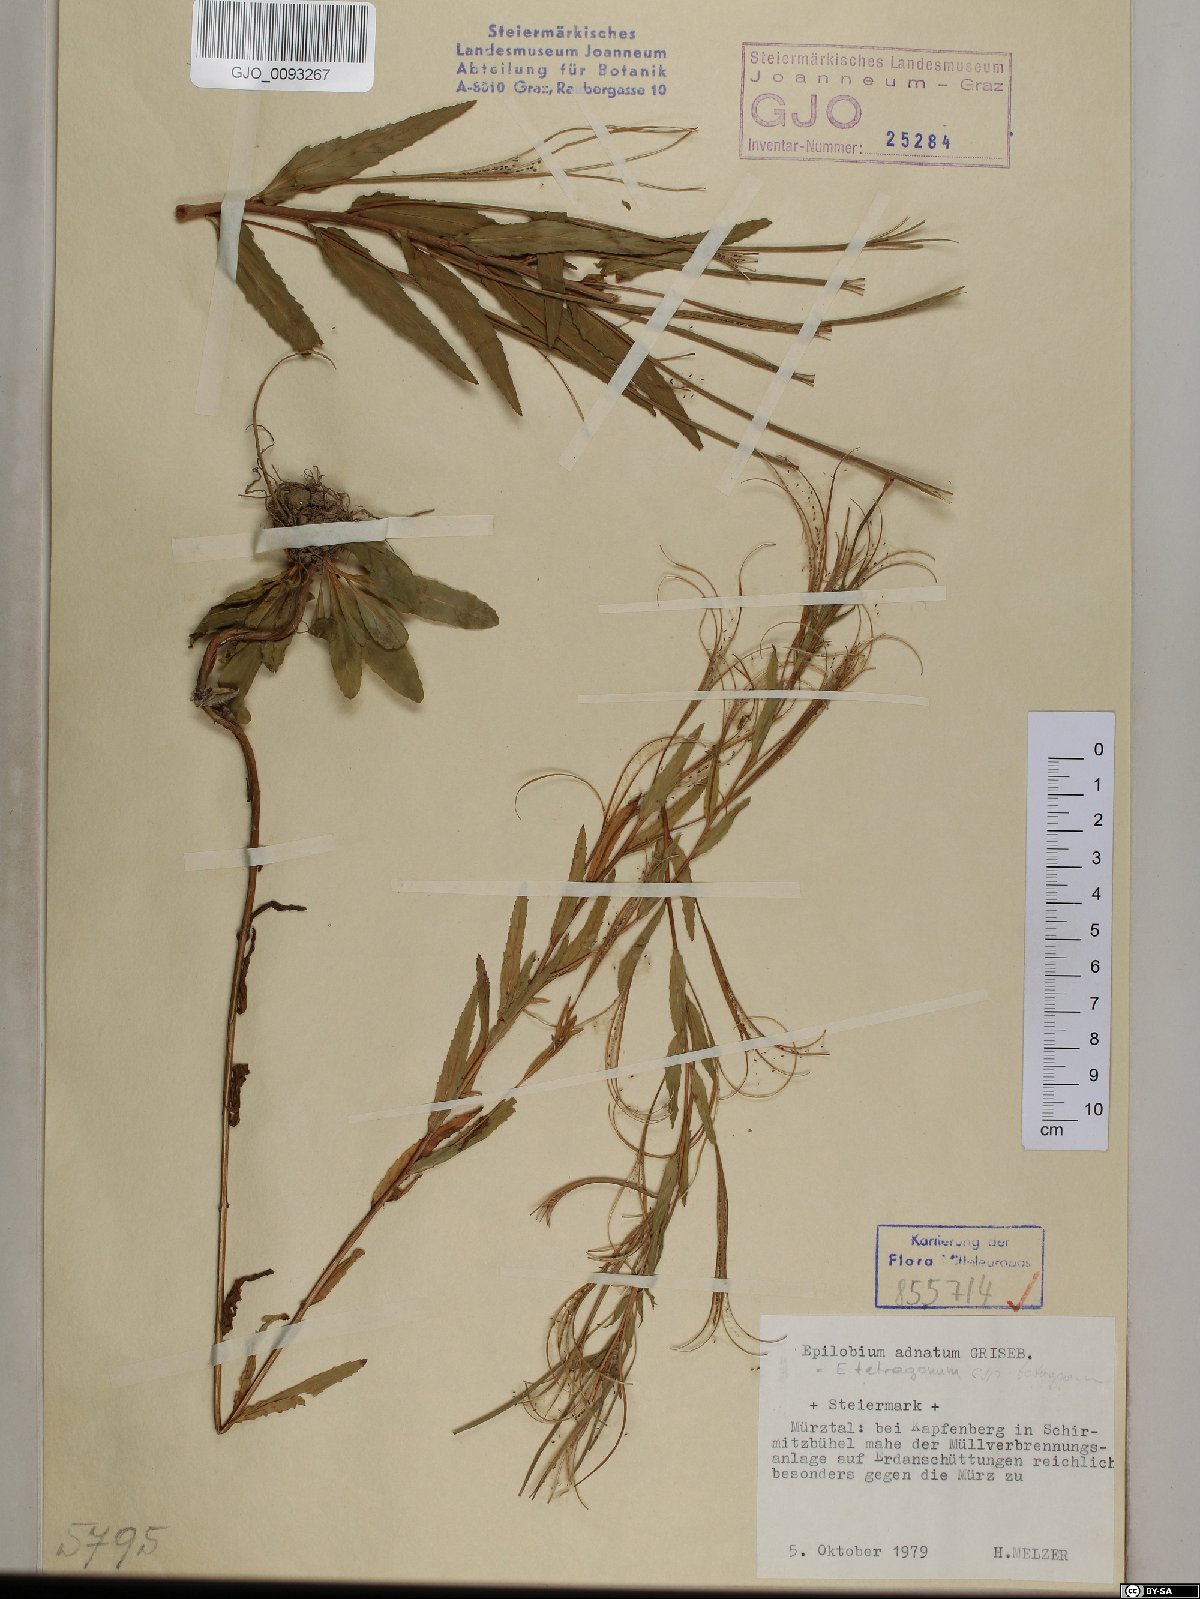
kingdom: Plantae
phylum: Tracheophyta
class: Magnoliopsida
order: Myrtales
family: Onagraceae
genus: Epilobium
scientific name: Epilobium tetragonum
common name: Square-stemmed willowherb
